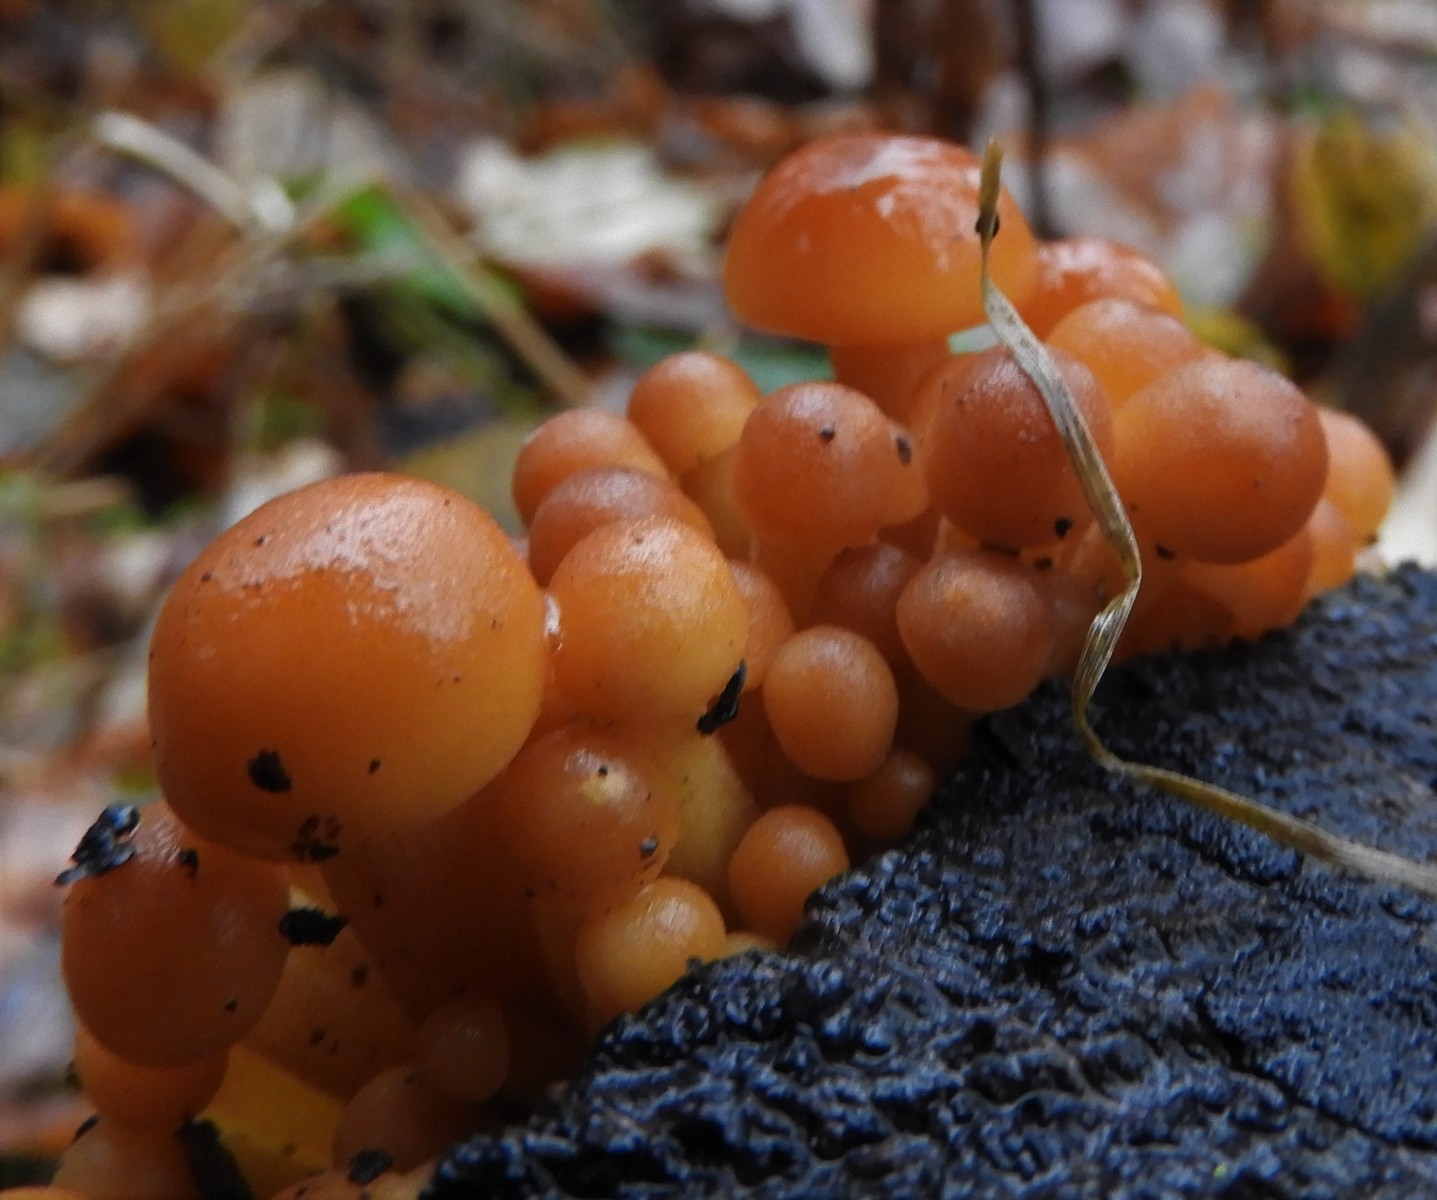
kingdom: Fungi
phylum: Basidiomycota
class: Agaricomycetes
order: Agaricales
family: Physalacriaceae
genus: Flammulina
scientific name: Flammulina velutipes
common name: gul fløjlsfod
